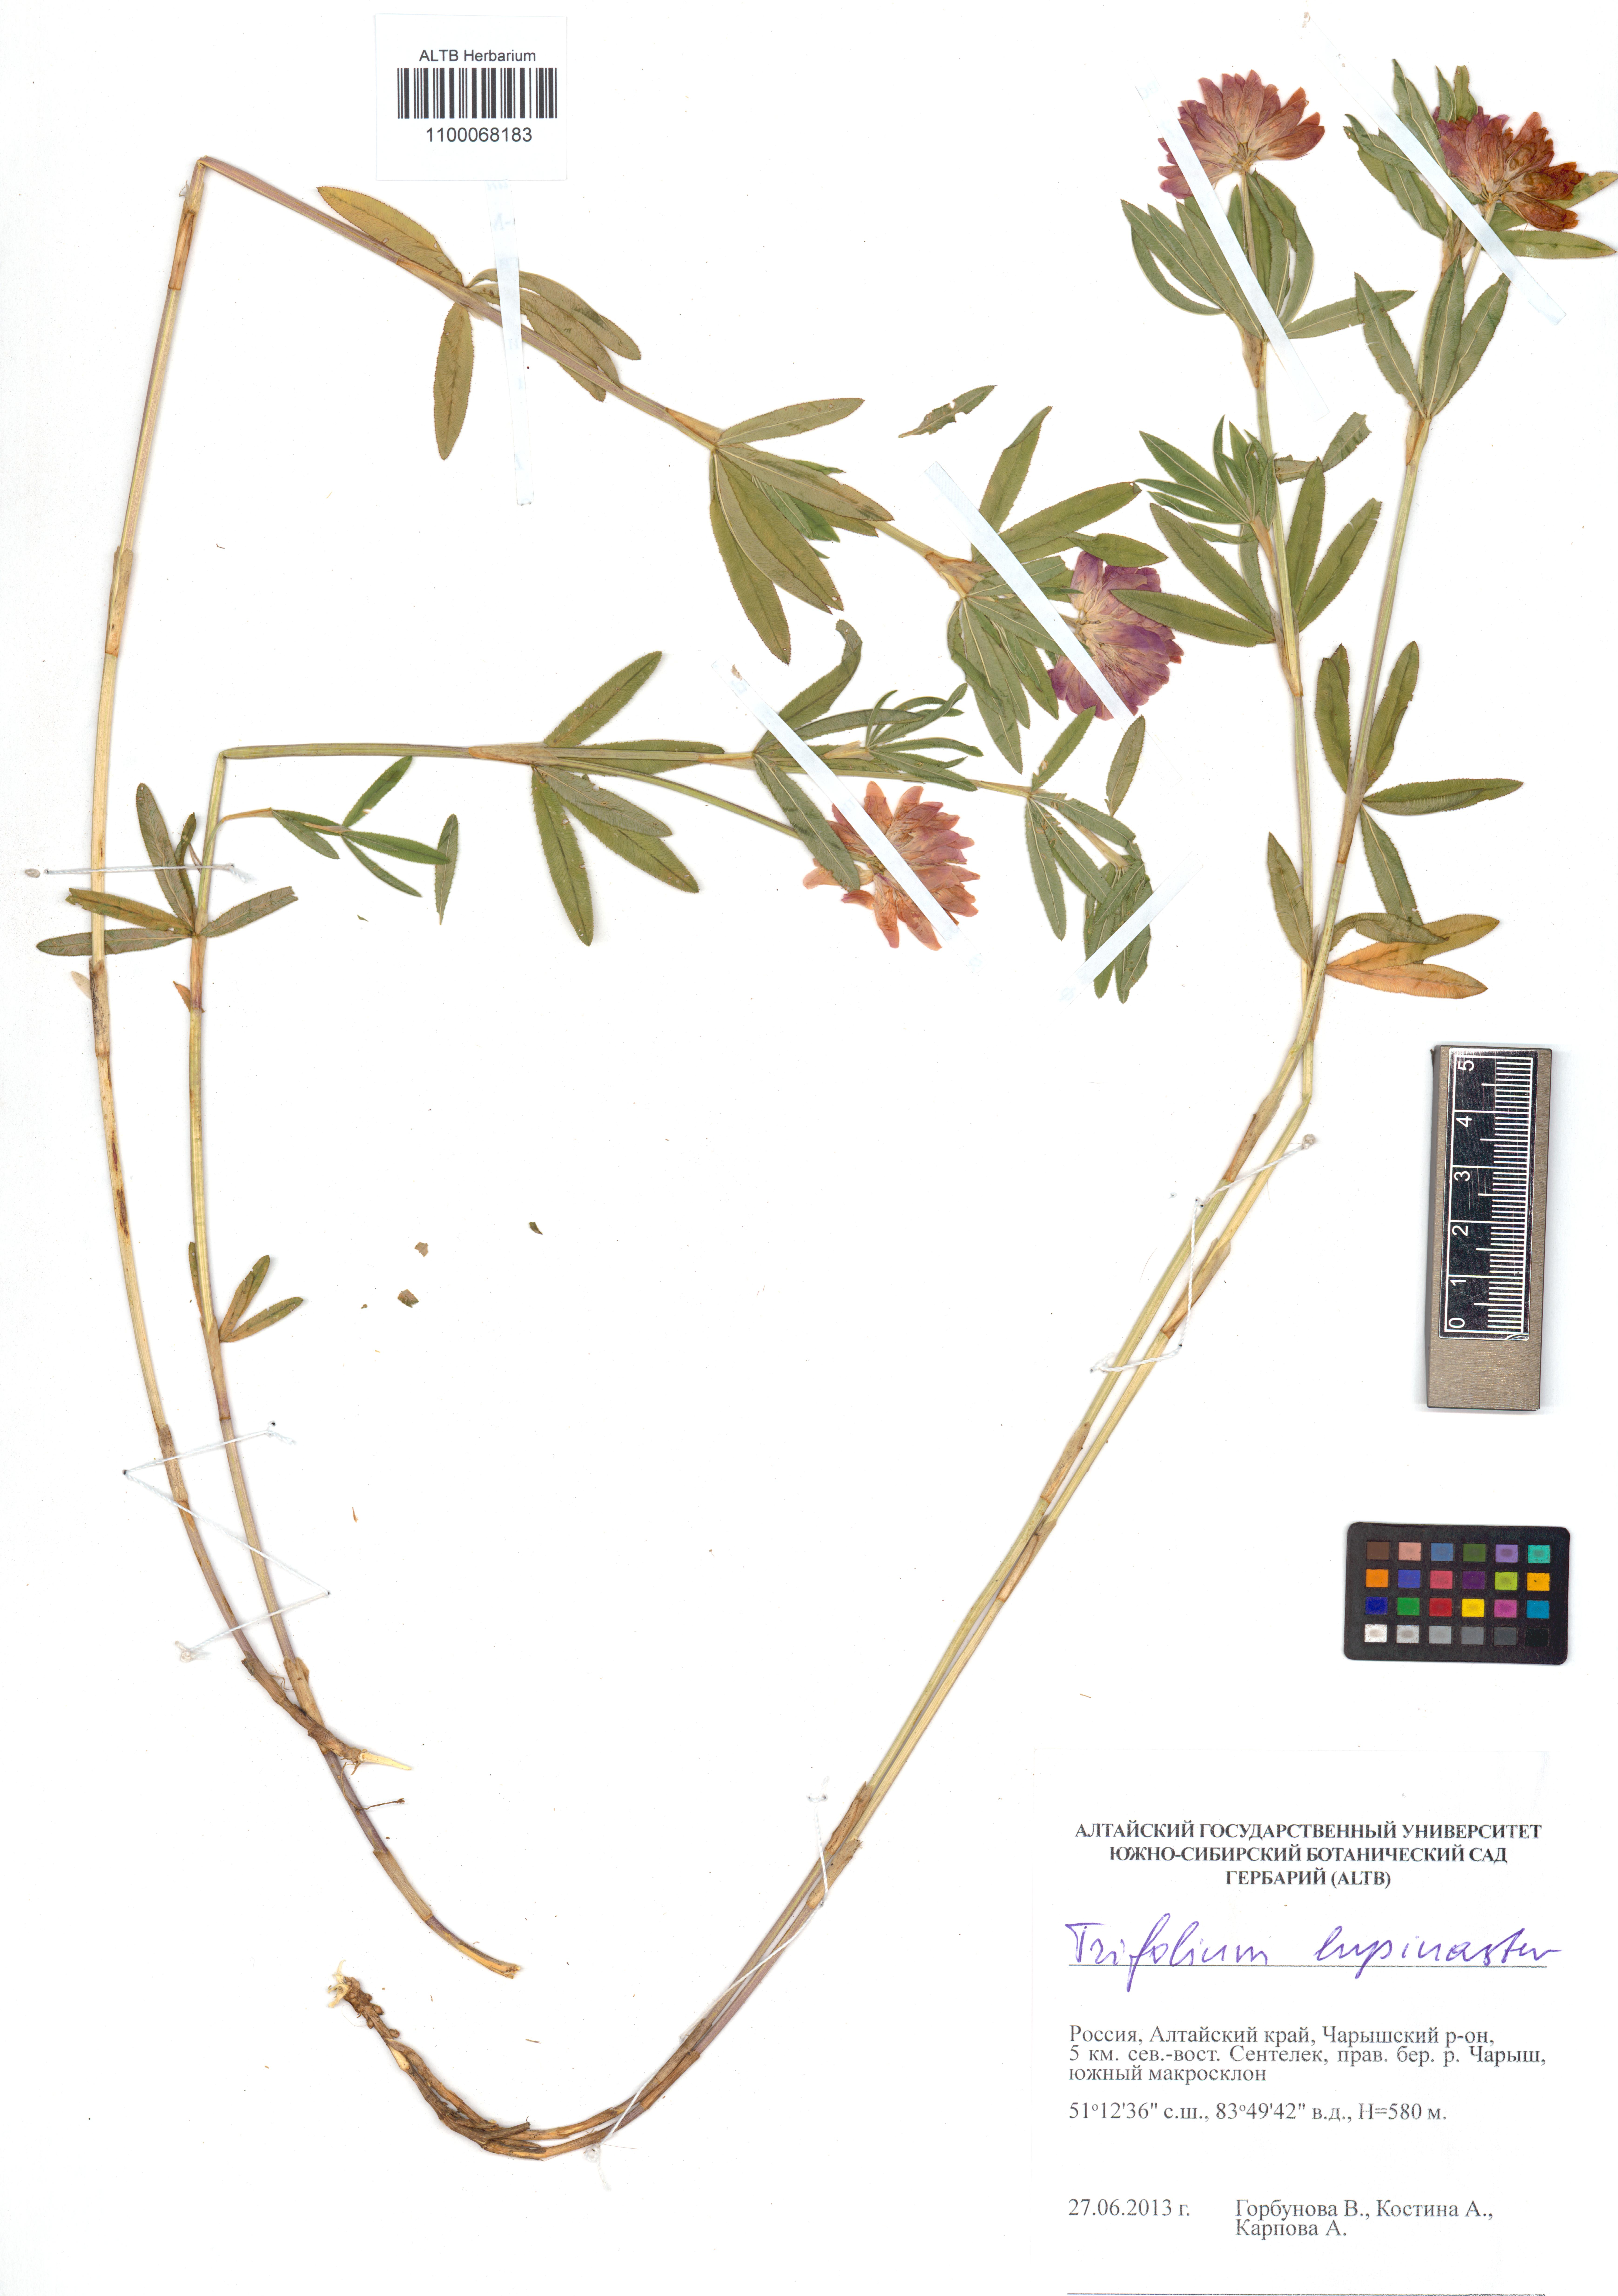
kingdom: Plantae
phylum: Tracheophyta
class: Magnoliopsida
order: Fabales
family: Fabaceae
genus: Trifolium
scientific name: Trifolium lupinaster
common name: Lupine clover
